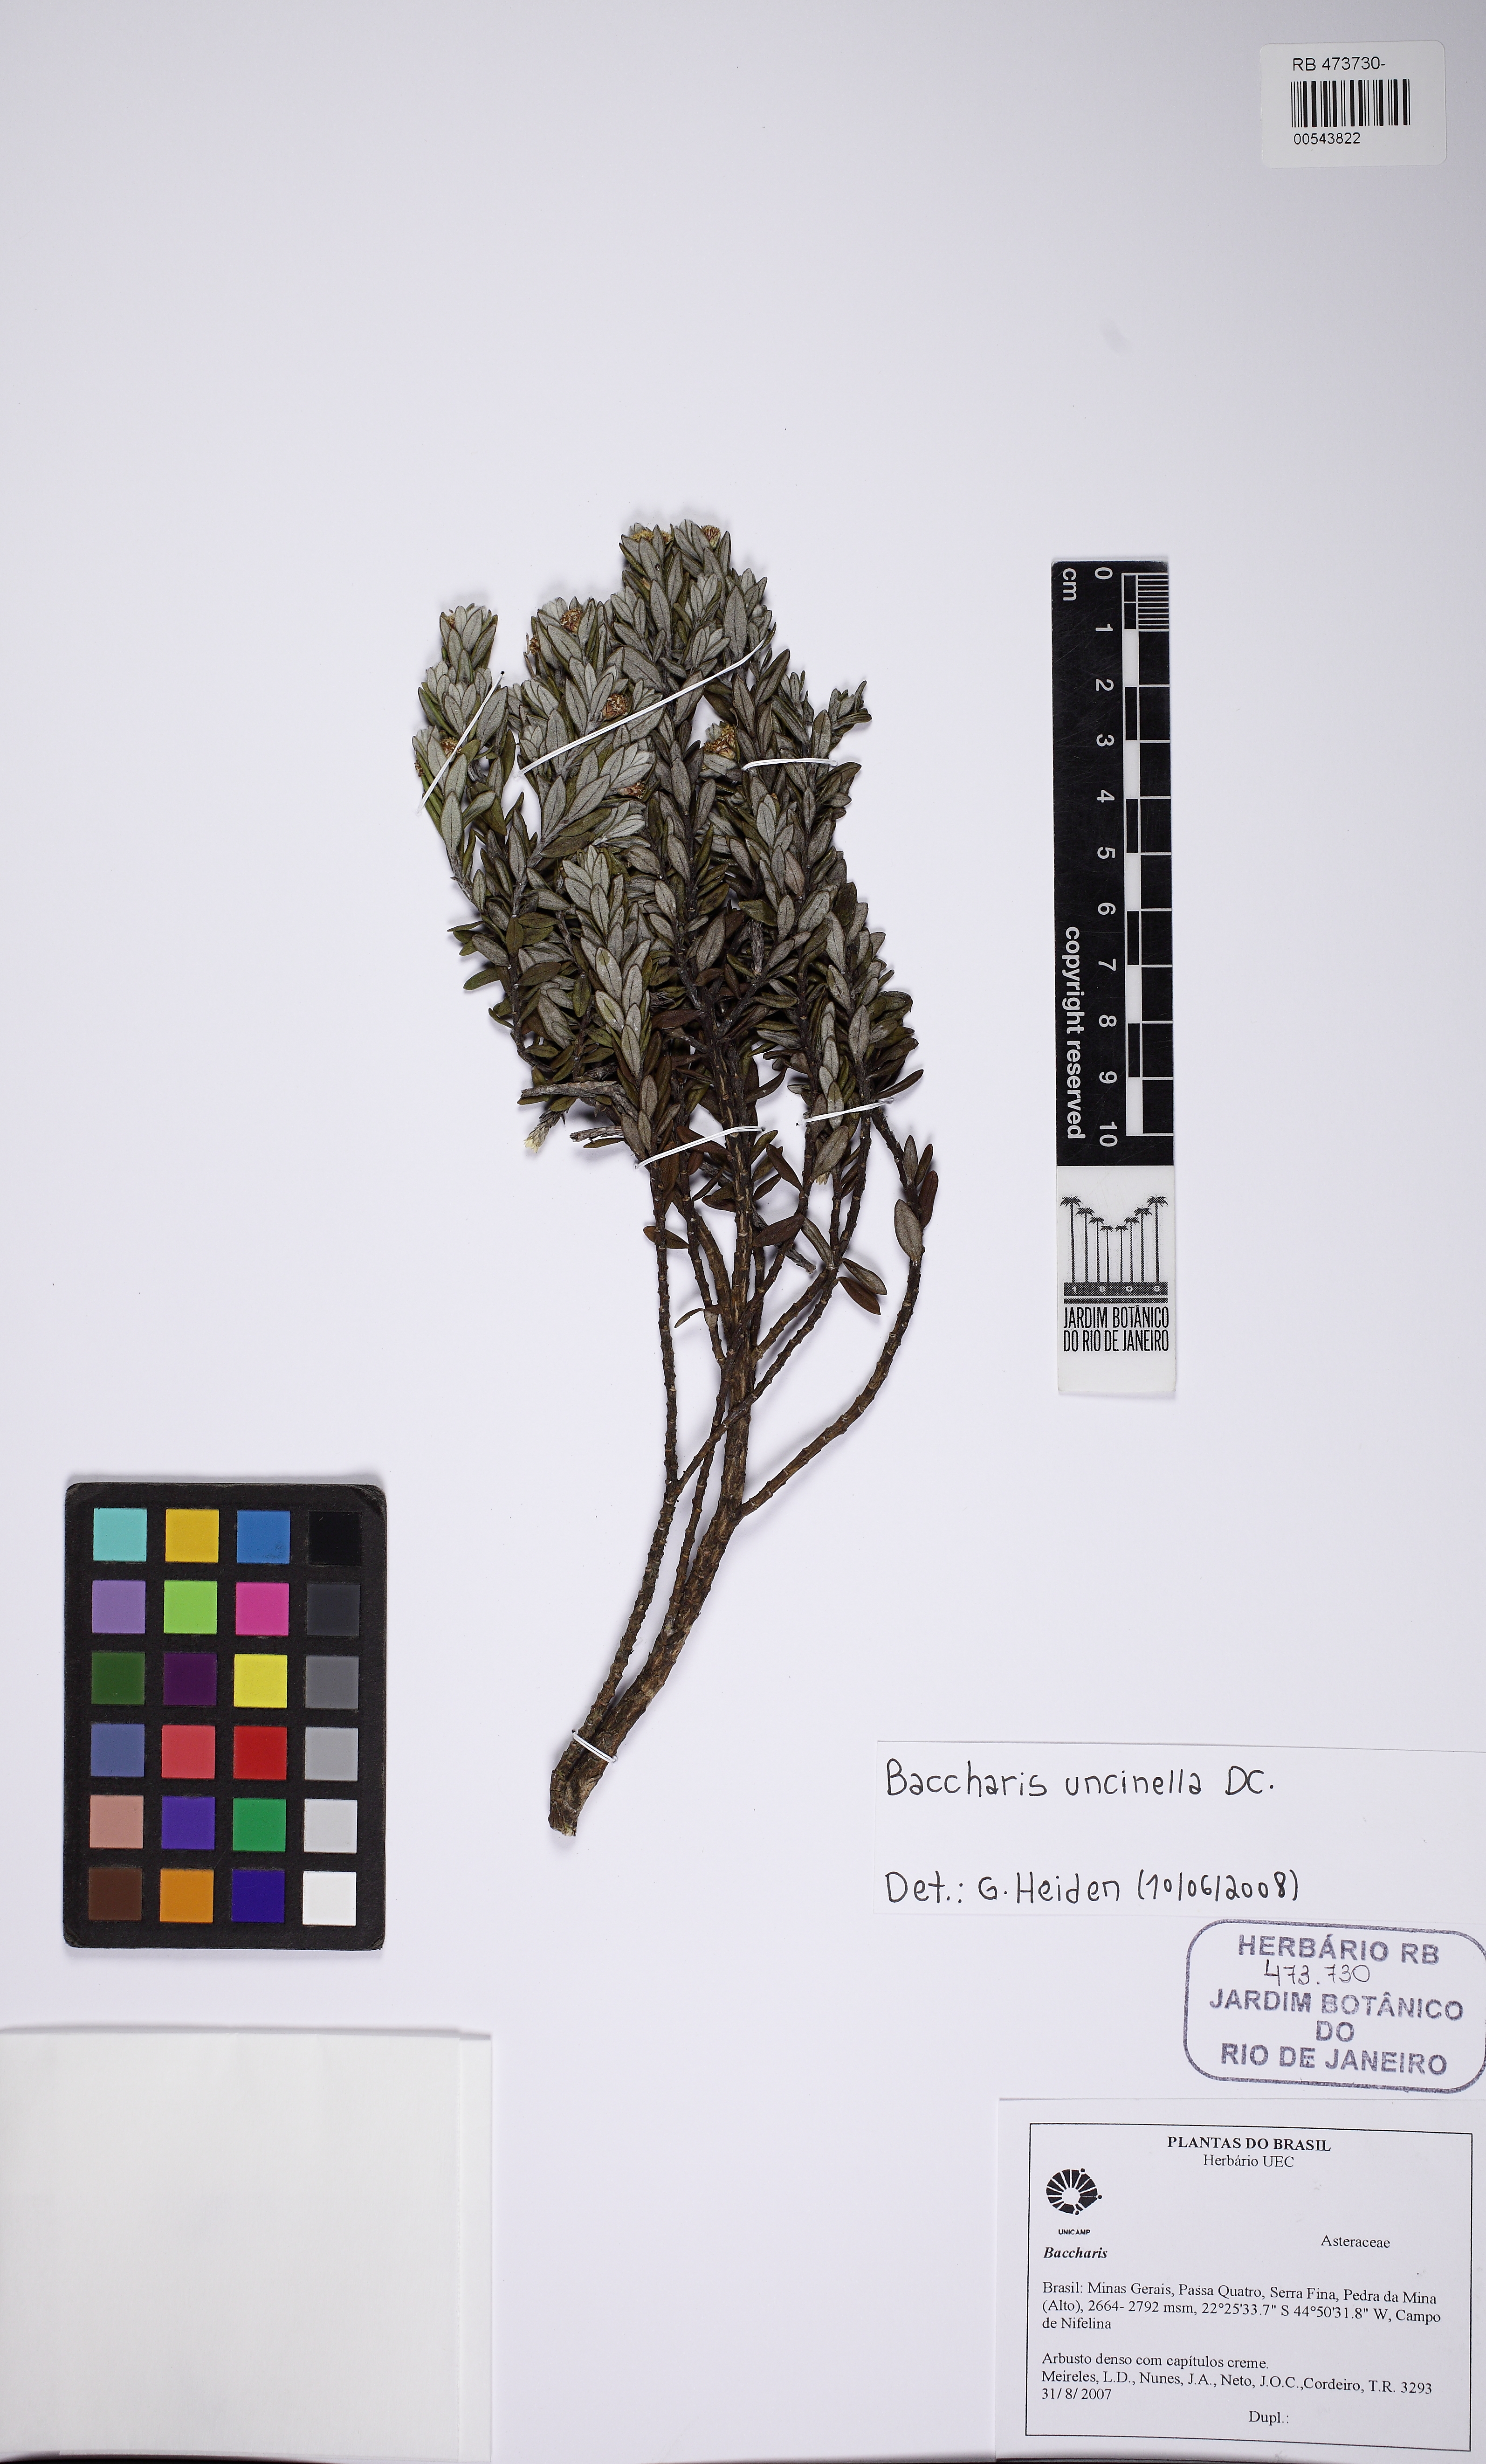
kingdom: Plantae
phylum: Tracheophyta
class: Magnoliopsida
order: Asterales
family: Asteraceae
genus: Baccharis
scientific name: Baccharis uncinella
